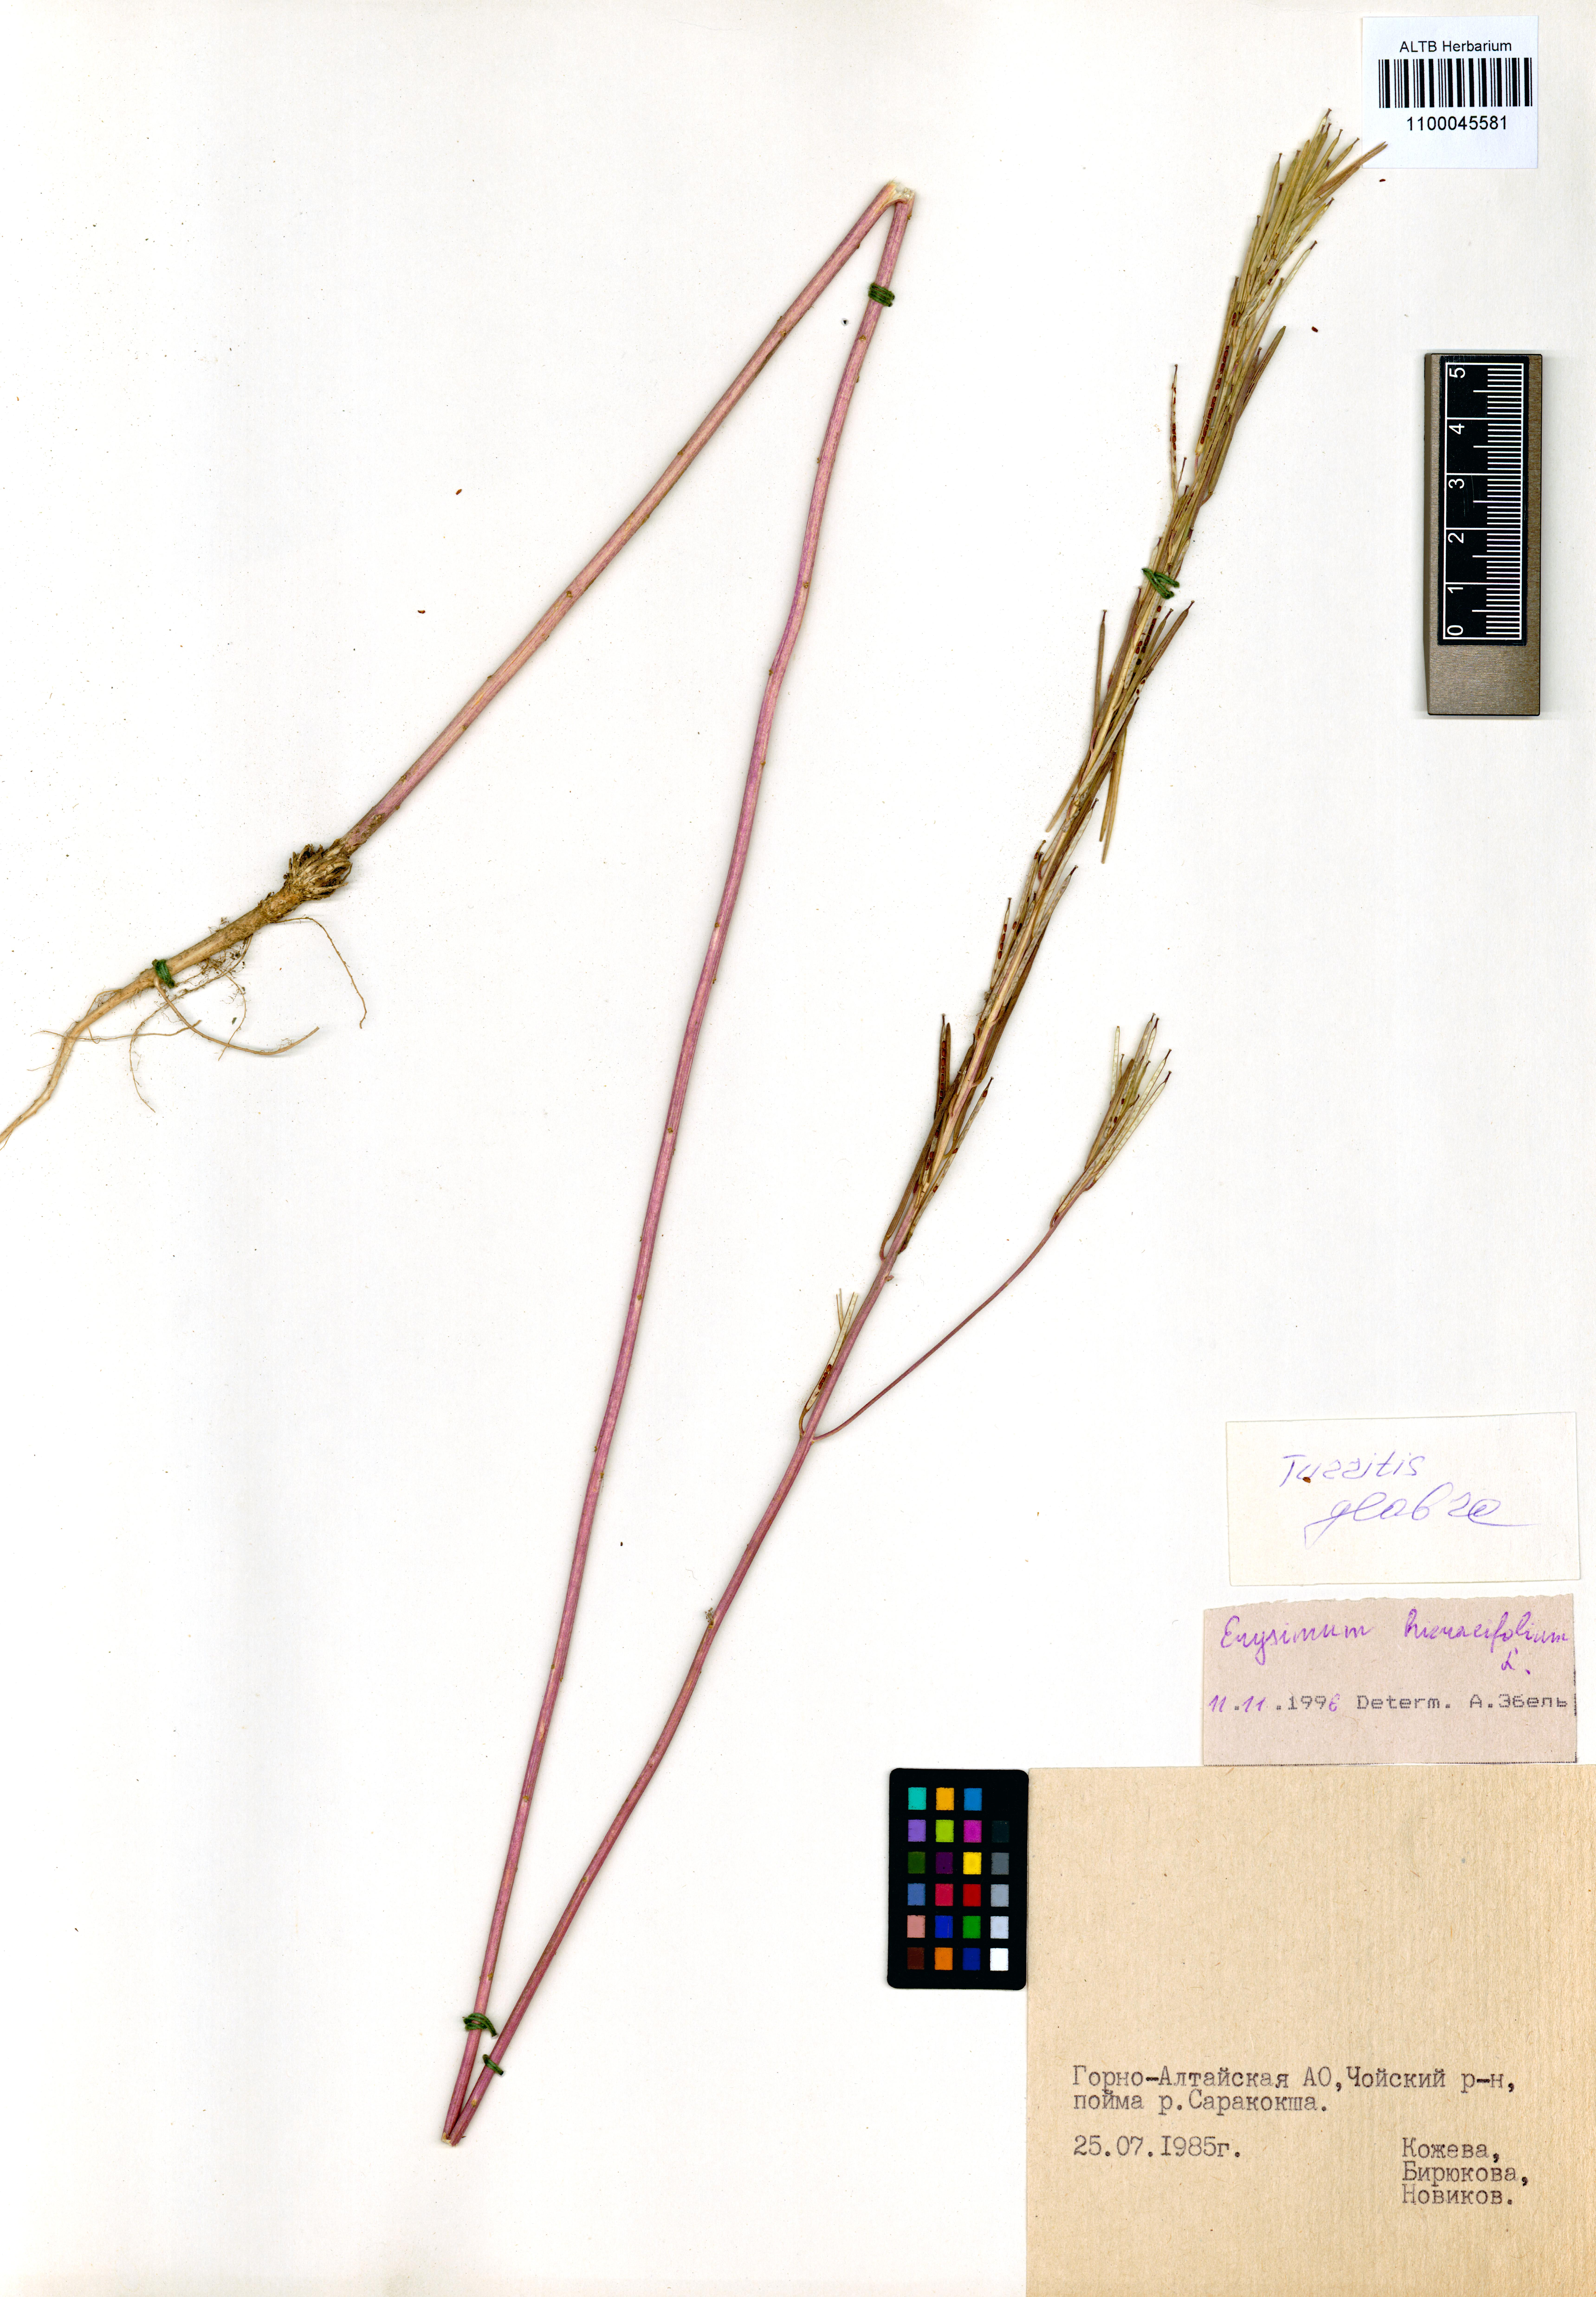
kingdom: Plantae
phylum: Tracheophyta
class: Magnoliopsida
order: Brassicales
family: Brassicaceae
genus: Erysimum
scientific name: Erysimum hieraciifolium
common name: European wallflower
